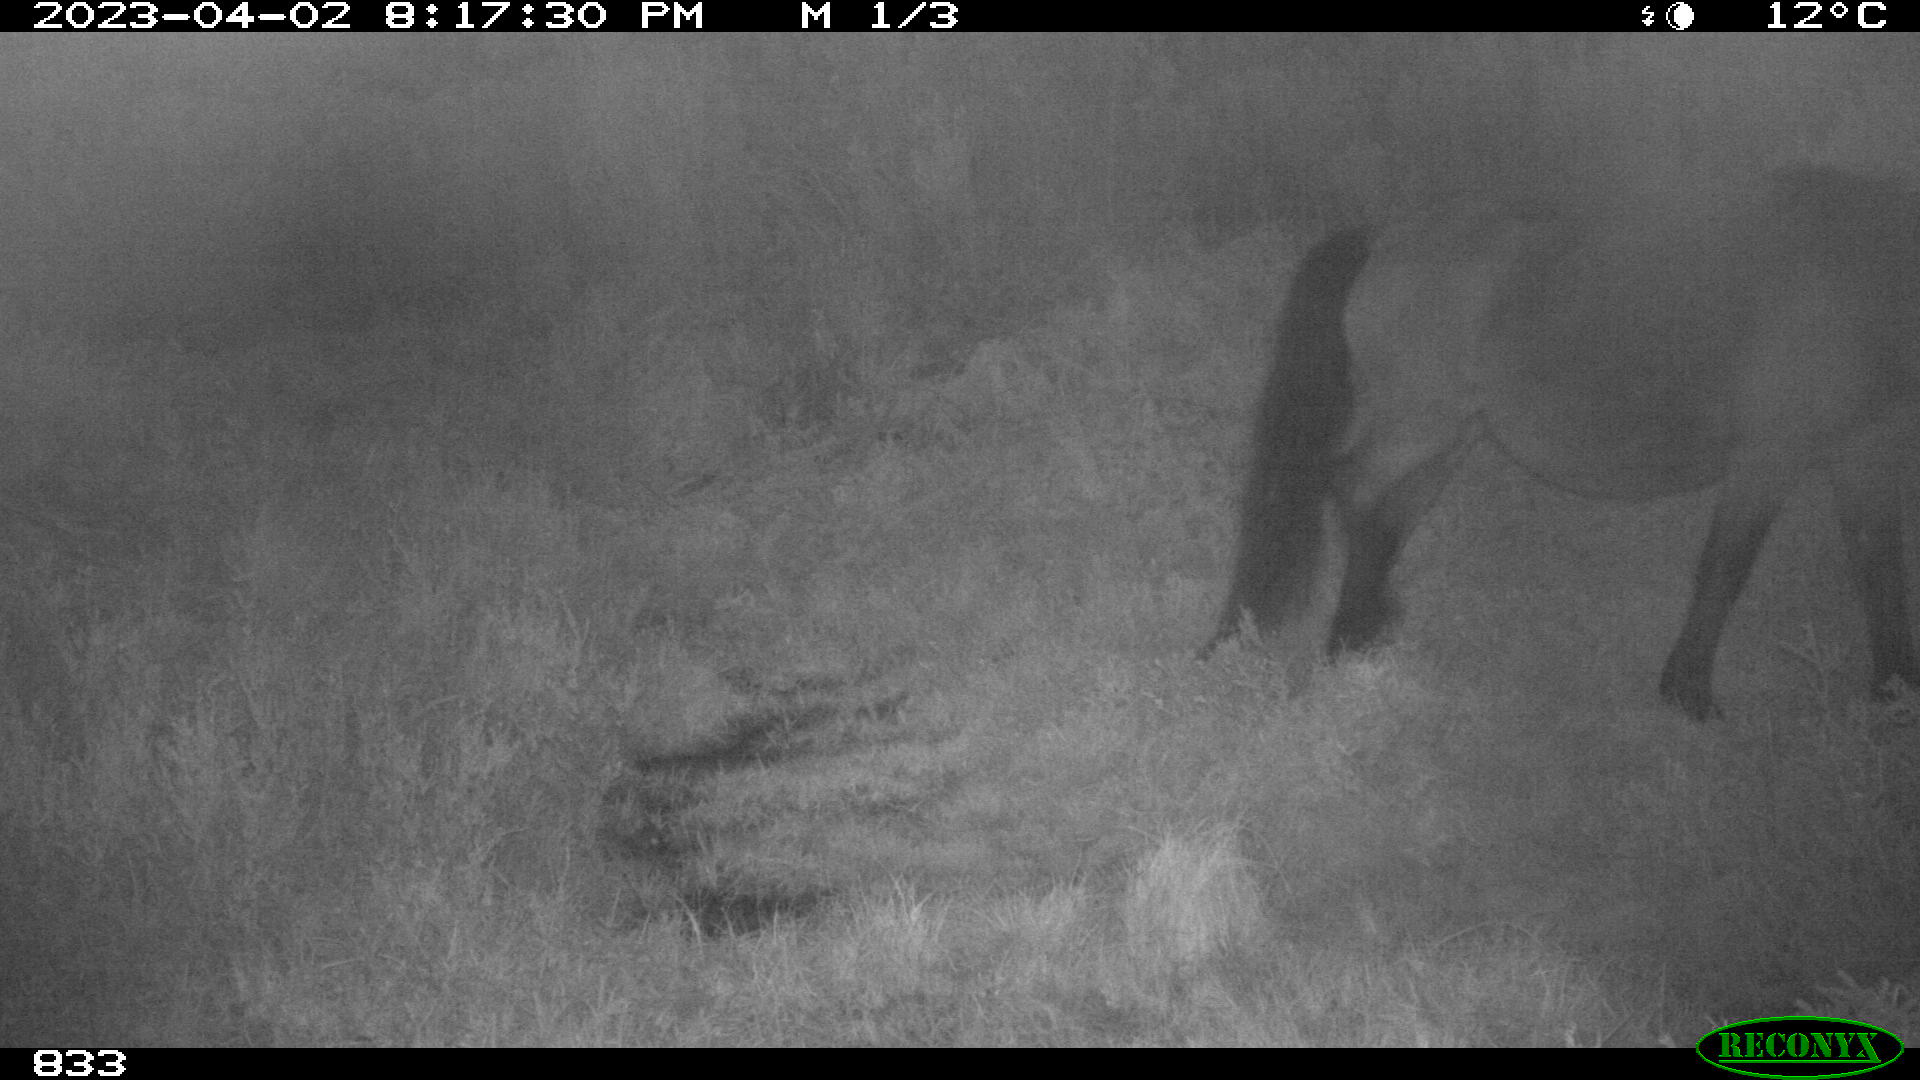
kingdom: Animalia
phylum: Chordata
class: Mammalia
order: Perissodactyla
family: Equidae
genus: Equus
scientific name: Equus caballus
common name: Horse
